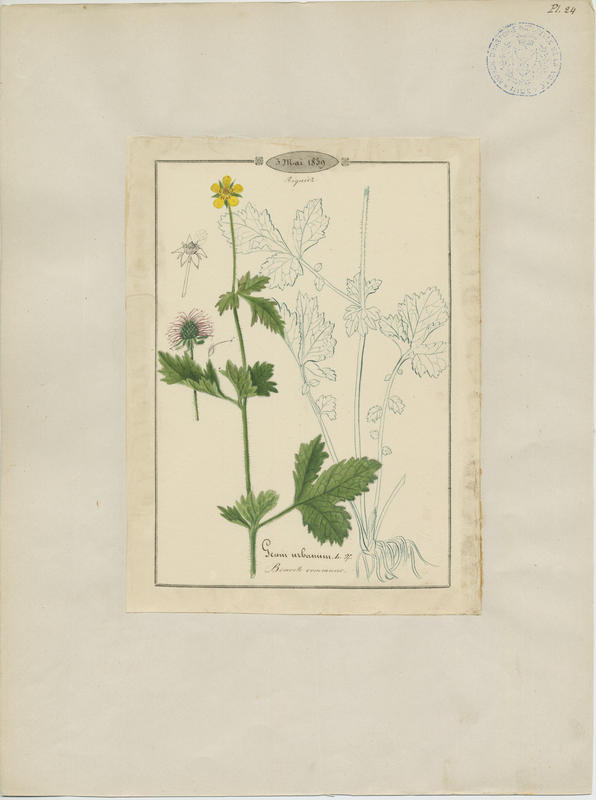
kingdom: Plantae
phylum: Tracheophyta
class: Magnoliopsida
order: Rosales
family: Rosaceae
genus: Geum
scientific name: Geum urbanum
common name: Wood avens
